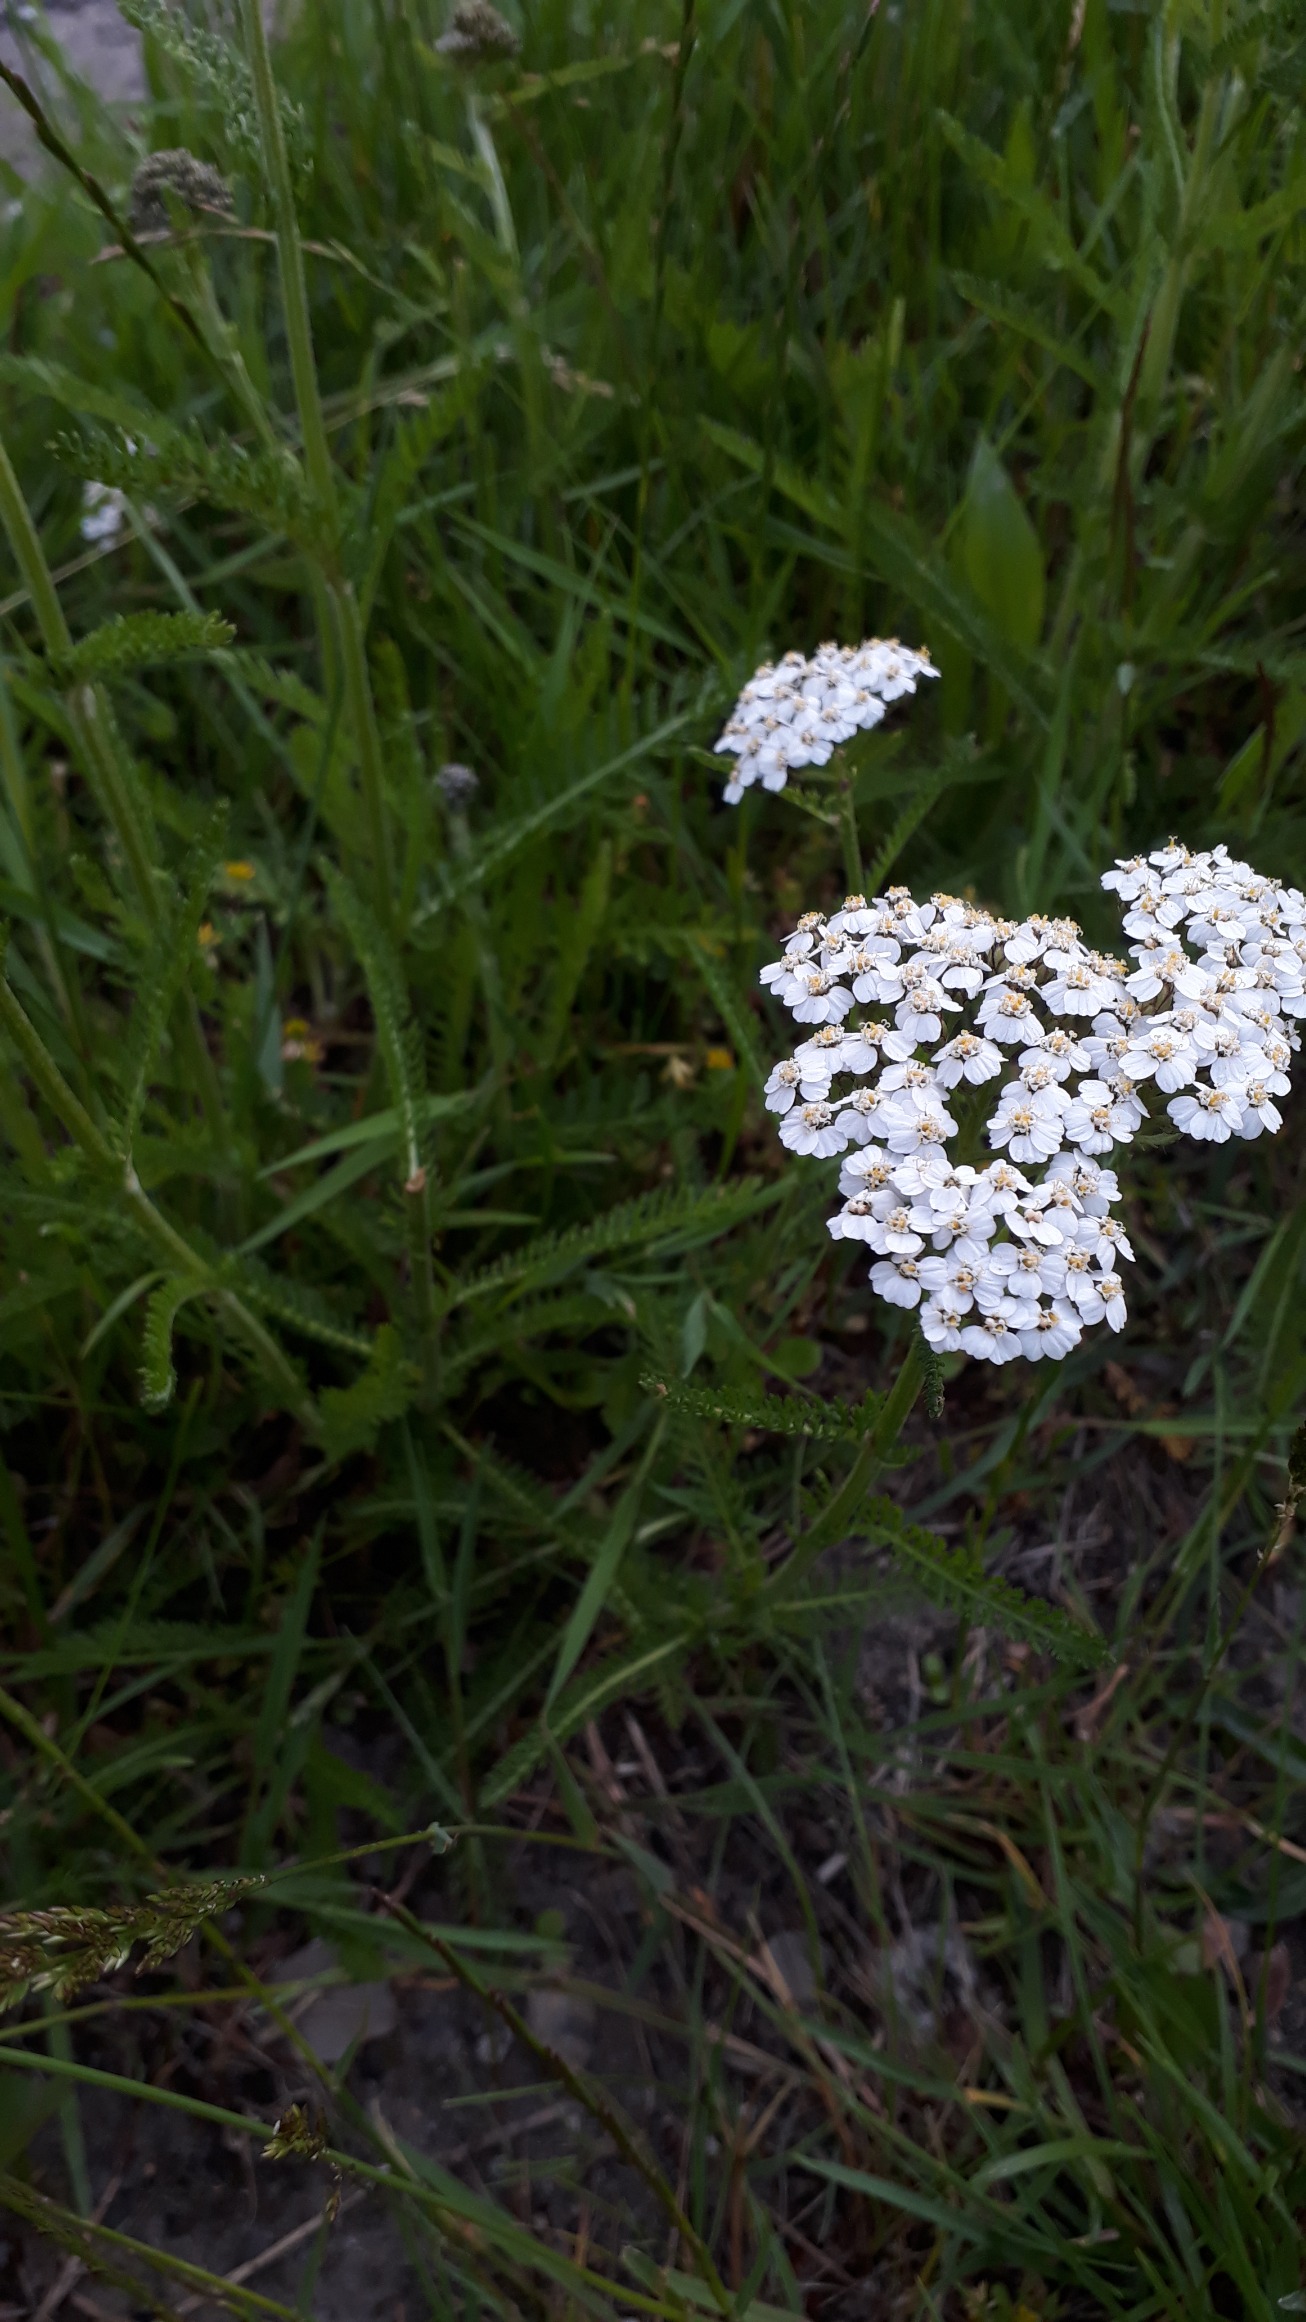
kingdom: Plantae
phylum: Tracheophyta
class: Magnoliopsida
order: Asterales
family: Asteraceae
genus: Achillea
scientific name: Achillea millefolium
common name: Almindelig røllike
